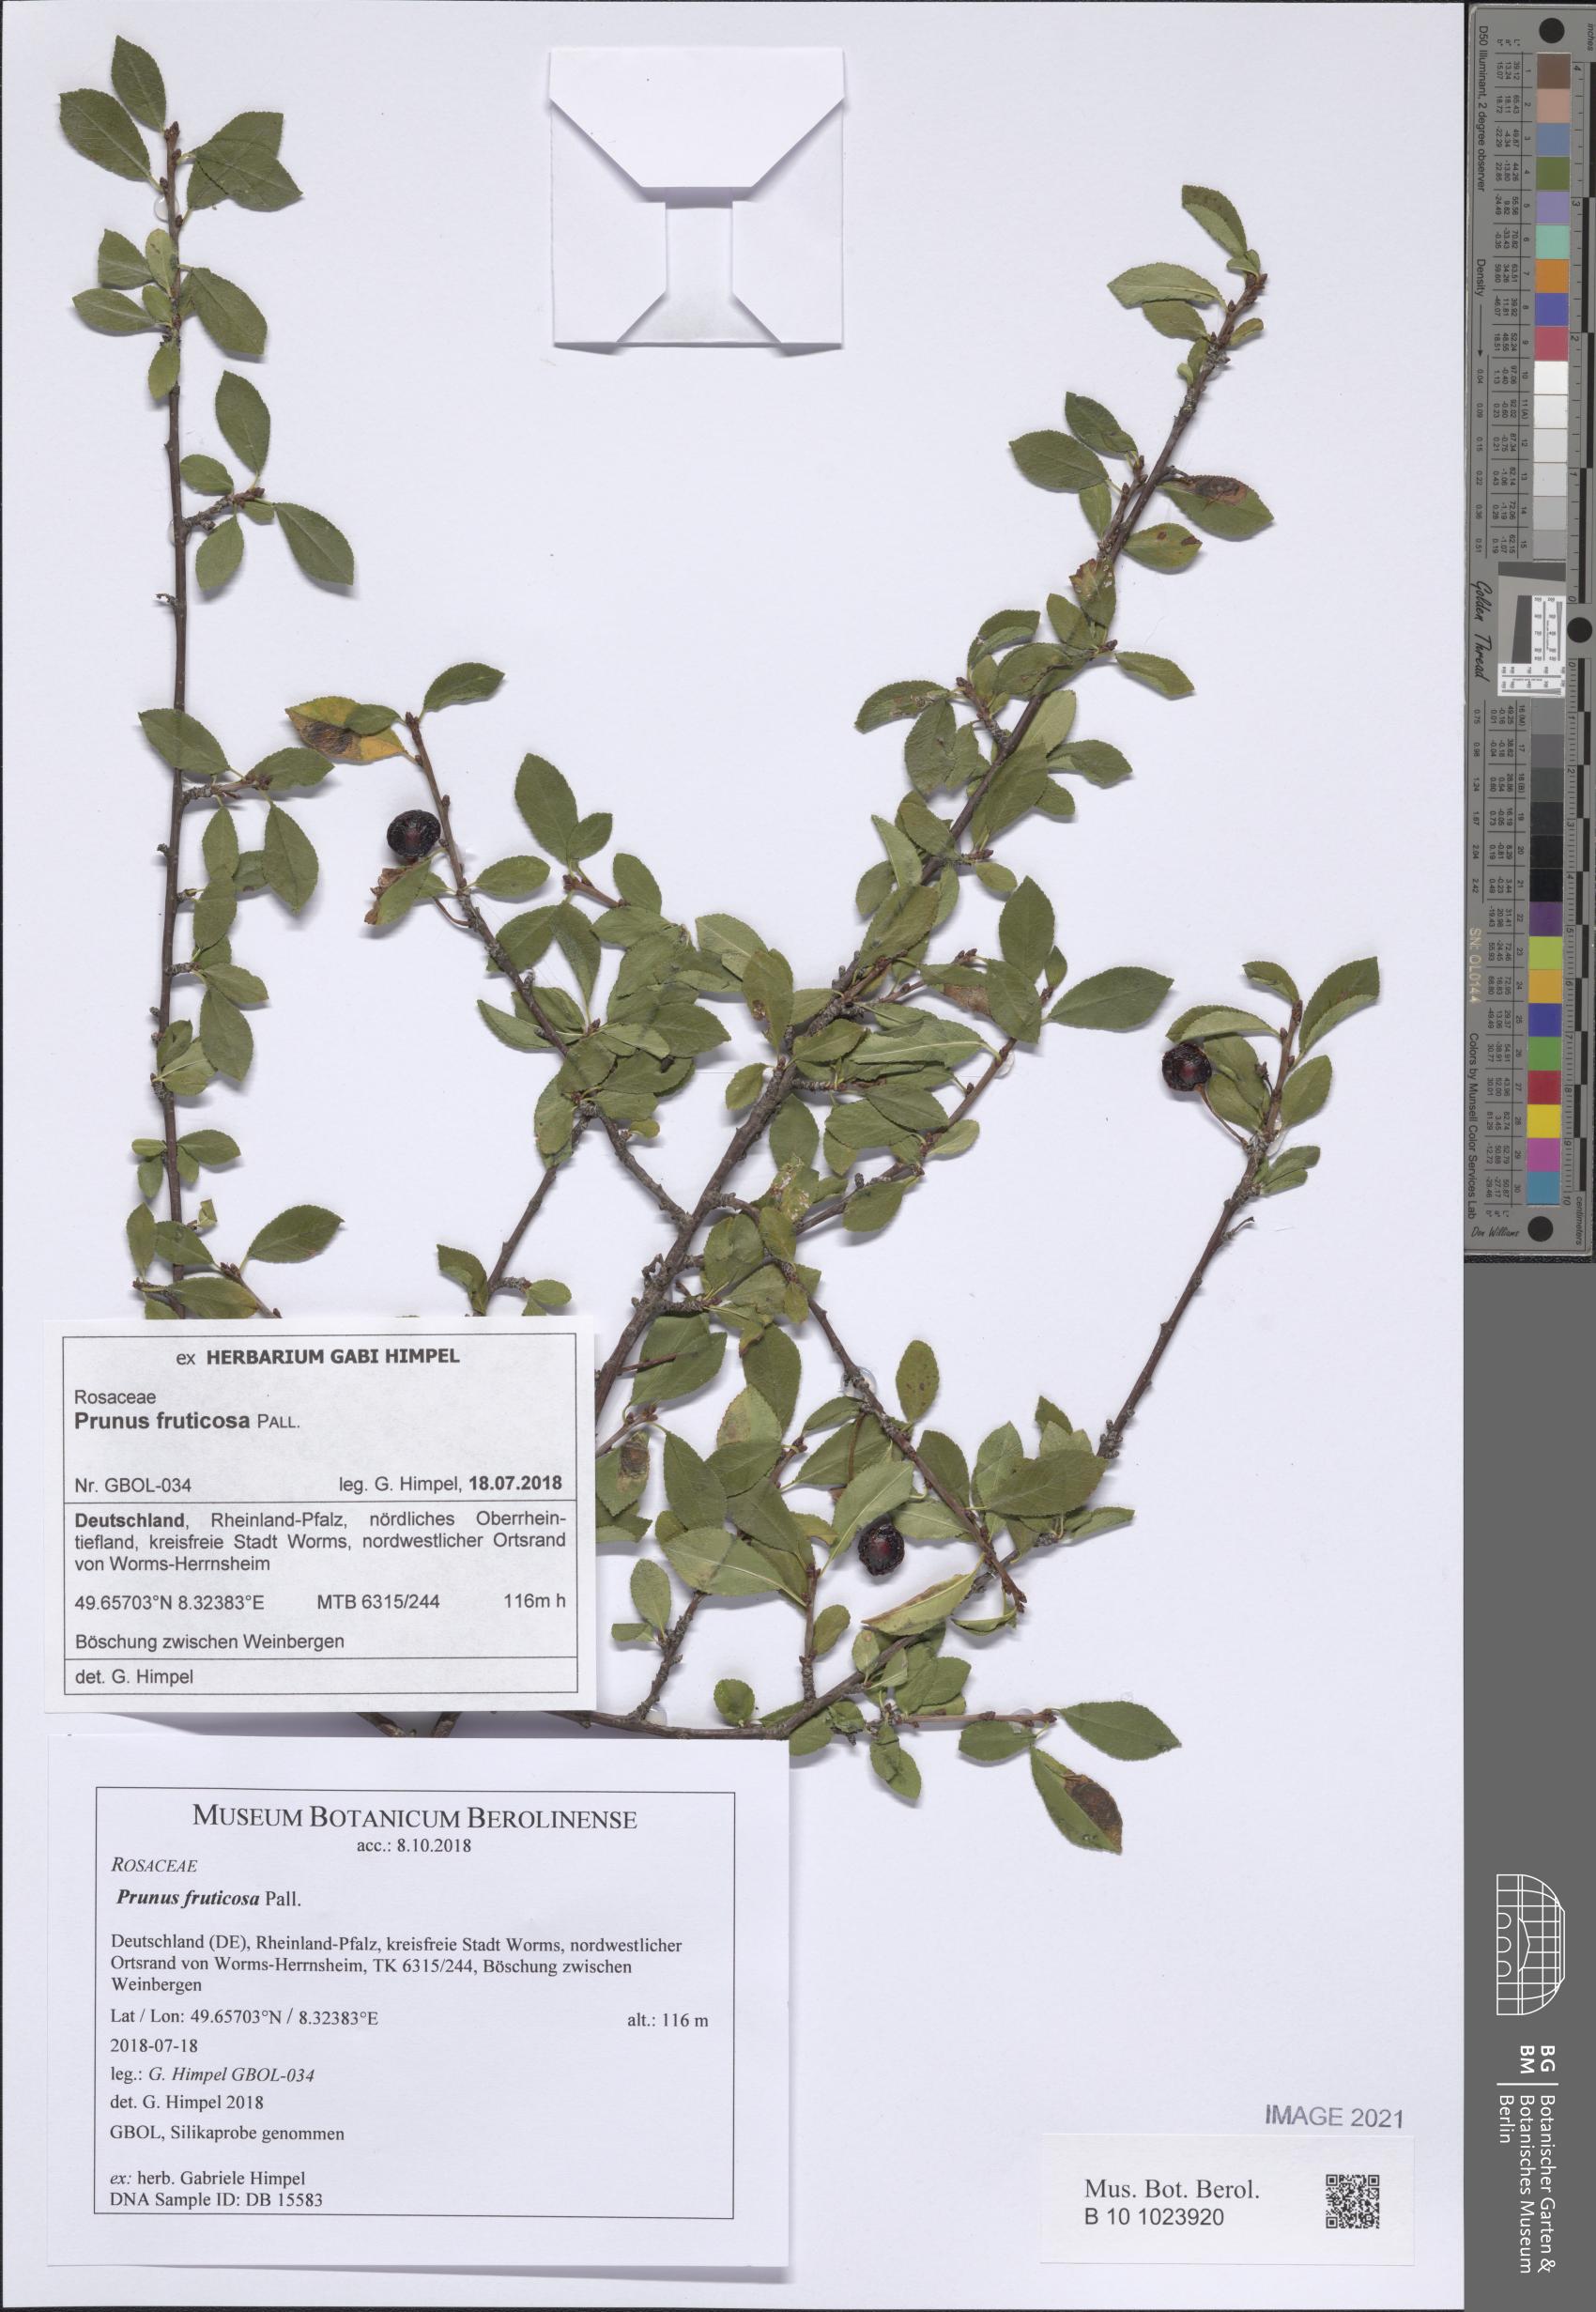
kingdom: Plantae
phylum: Tracheophyta
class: Magnoliopsida
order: Rosales
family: Rosaceae
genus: Prunus
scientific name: Prunus fruticosa
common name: European dwarf cherry
